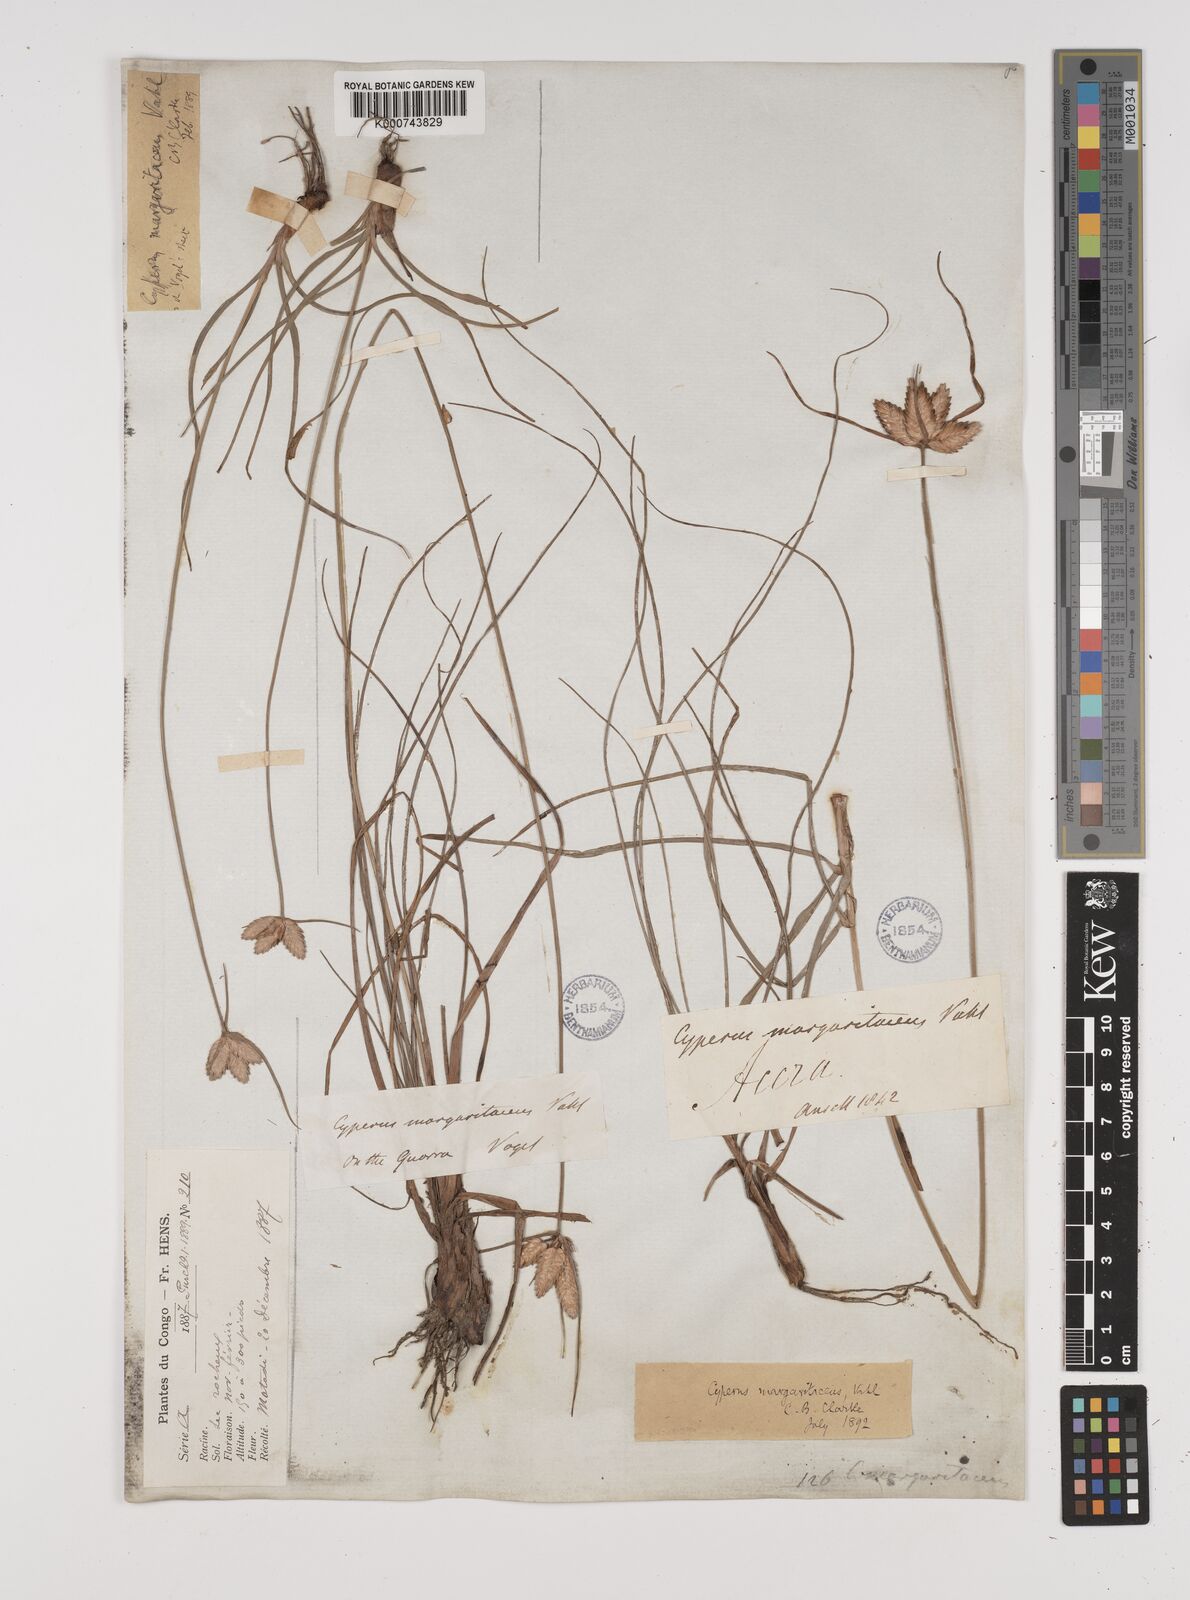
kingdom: Plantae
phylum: Tracheophyta
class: Liliopsida
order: Poales
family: Cyperaceae
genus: Cyperus
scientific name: Cyperus margaritaceus
